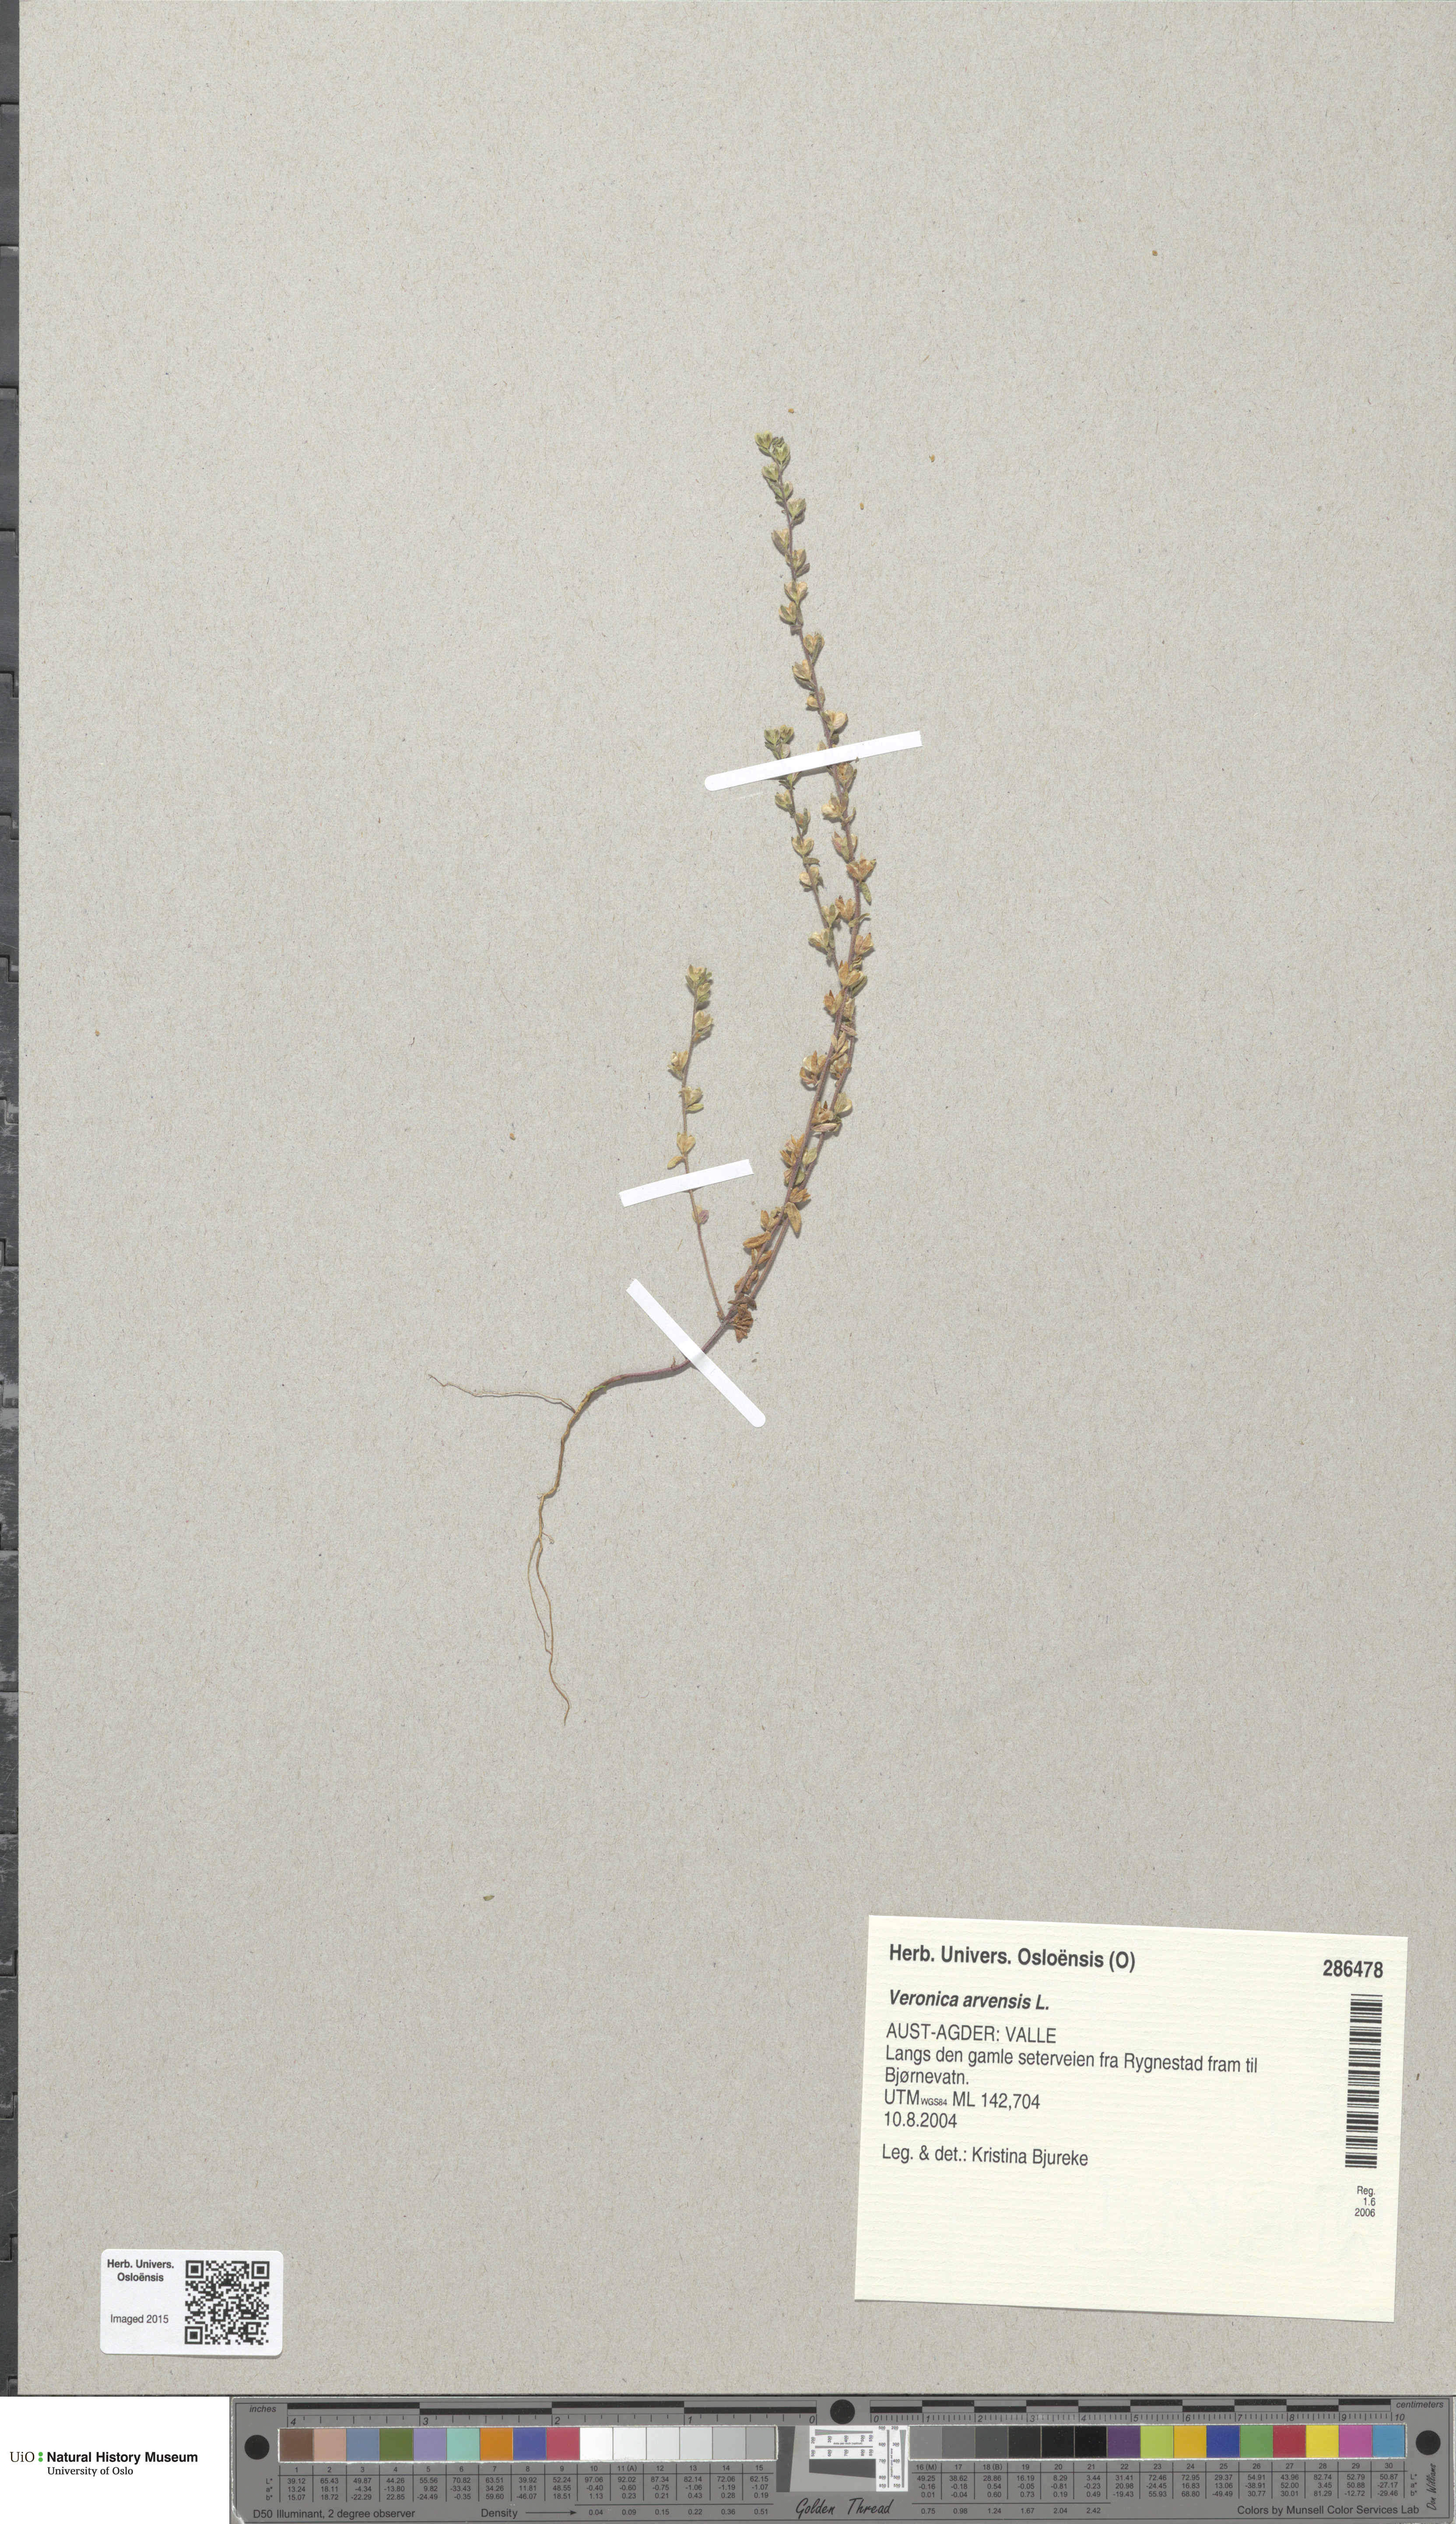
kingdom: Plantae
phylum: Tracheophyta
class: Magnoliopsida
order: Lamiales
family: Plantaginaceae
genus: Veronica
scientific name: Veronica arvensis
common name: Corn speedwell
